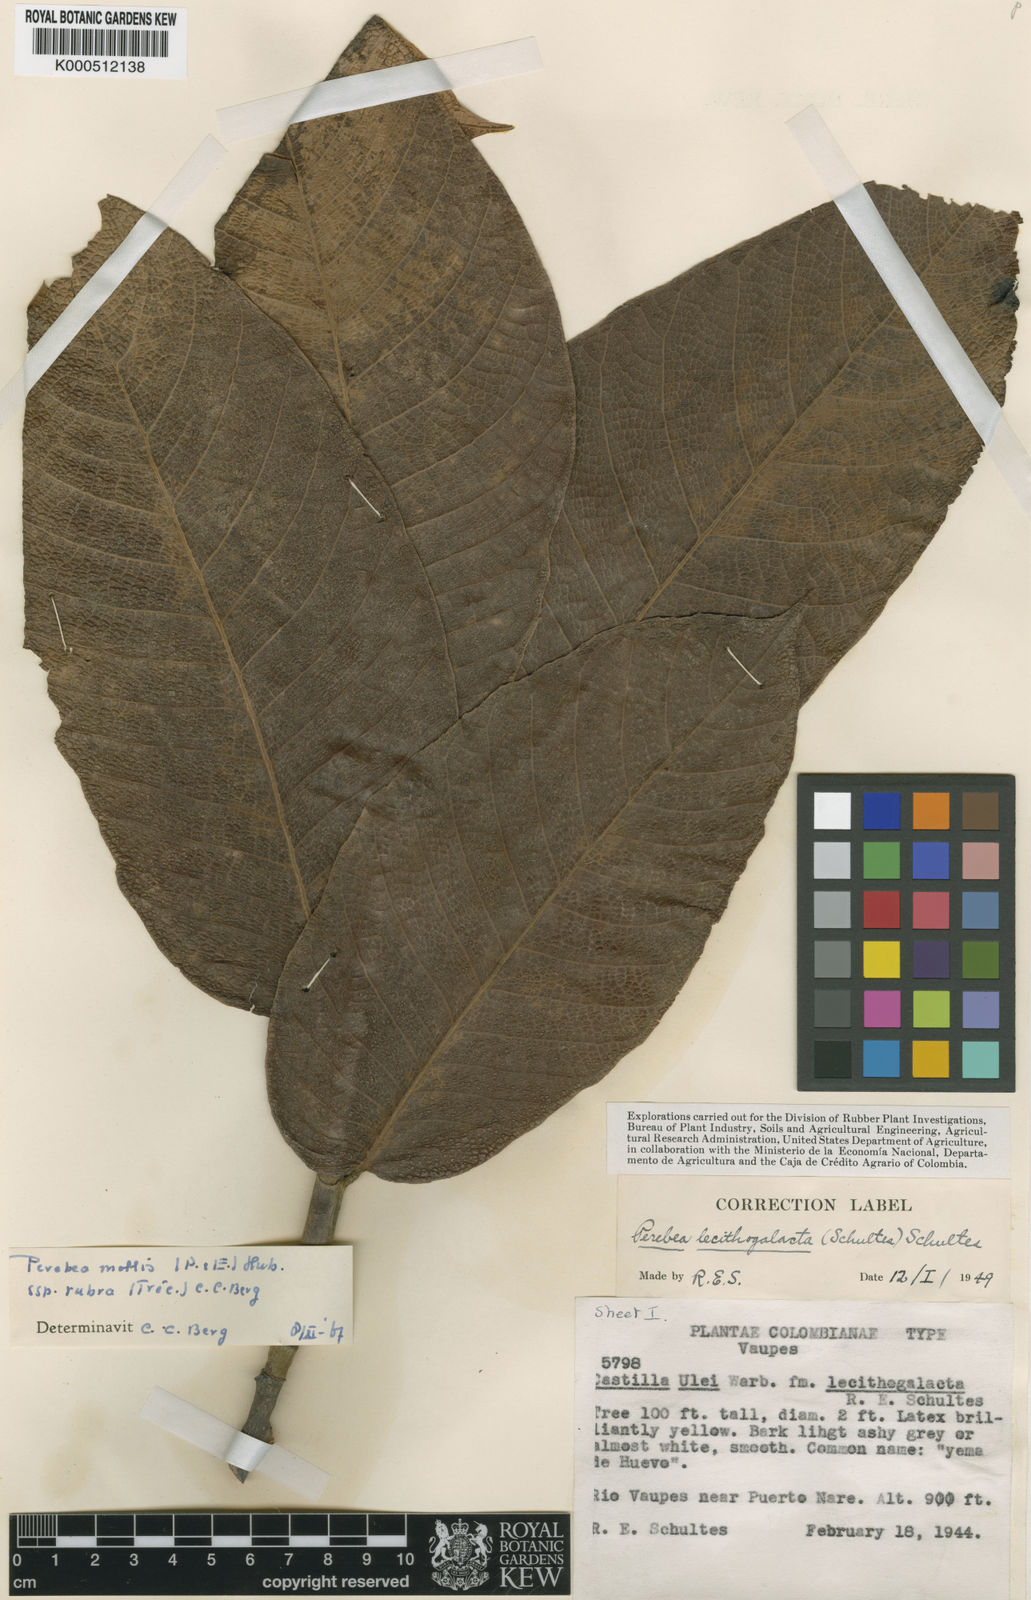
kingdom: Plantae
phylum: Tracheophyta
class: Magnoliopsida
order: Rosales
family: Moraceae
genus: Perebea
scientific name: Perebea
